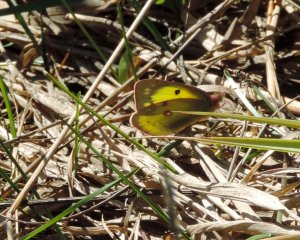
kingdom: Animalia
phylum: Arthropoda
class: Insecta
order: Lepidoptera
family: Pieridae
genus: Colias
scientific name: Colias philodice
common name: Clouded Sulphur
